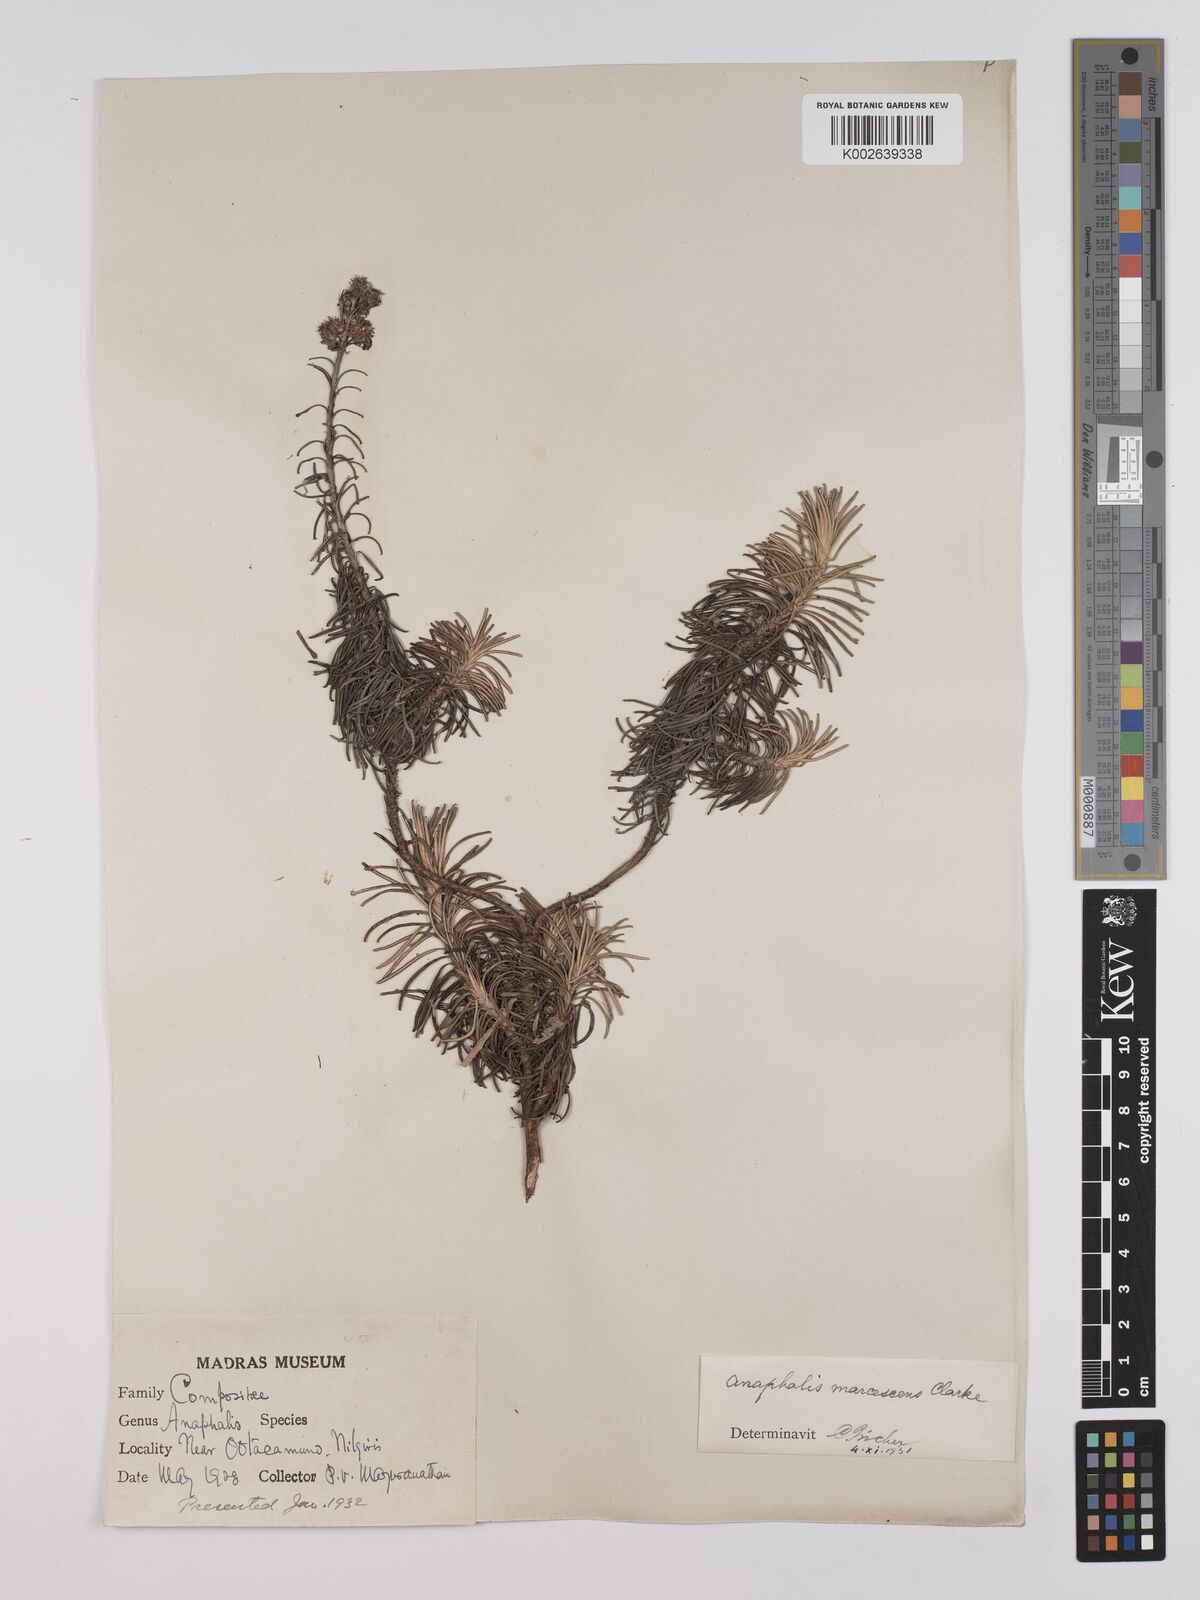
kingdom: Plantae
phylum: Tracheophyta
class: Magnoliopsida
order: Asterales
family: Asteraceae
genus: Anaphalis
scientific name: Anaphalis marcescens
